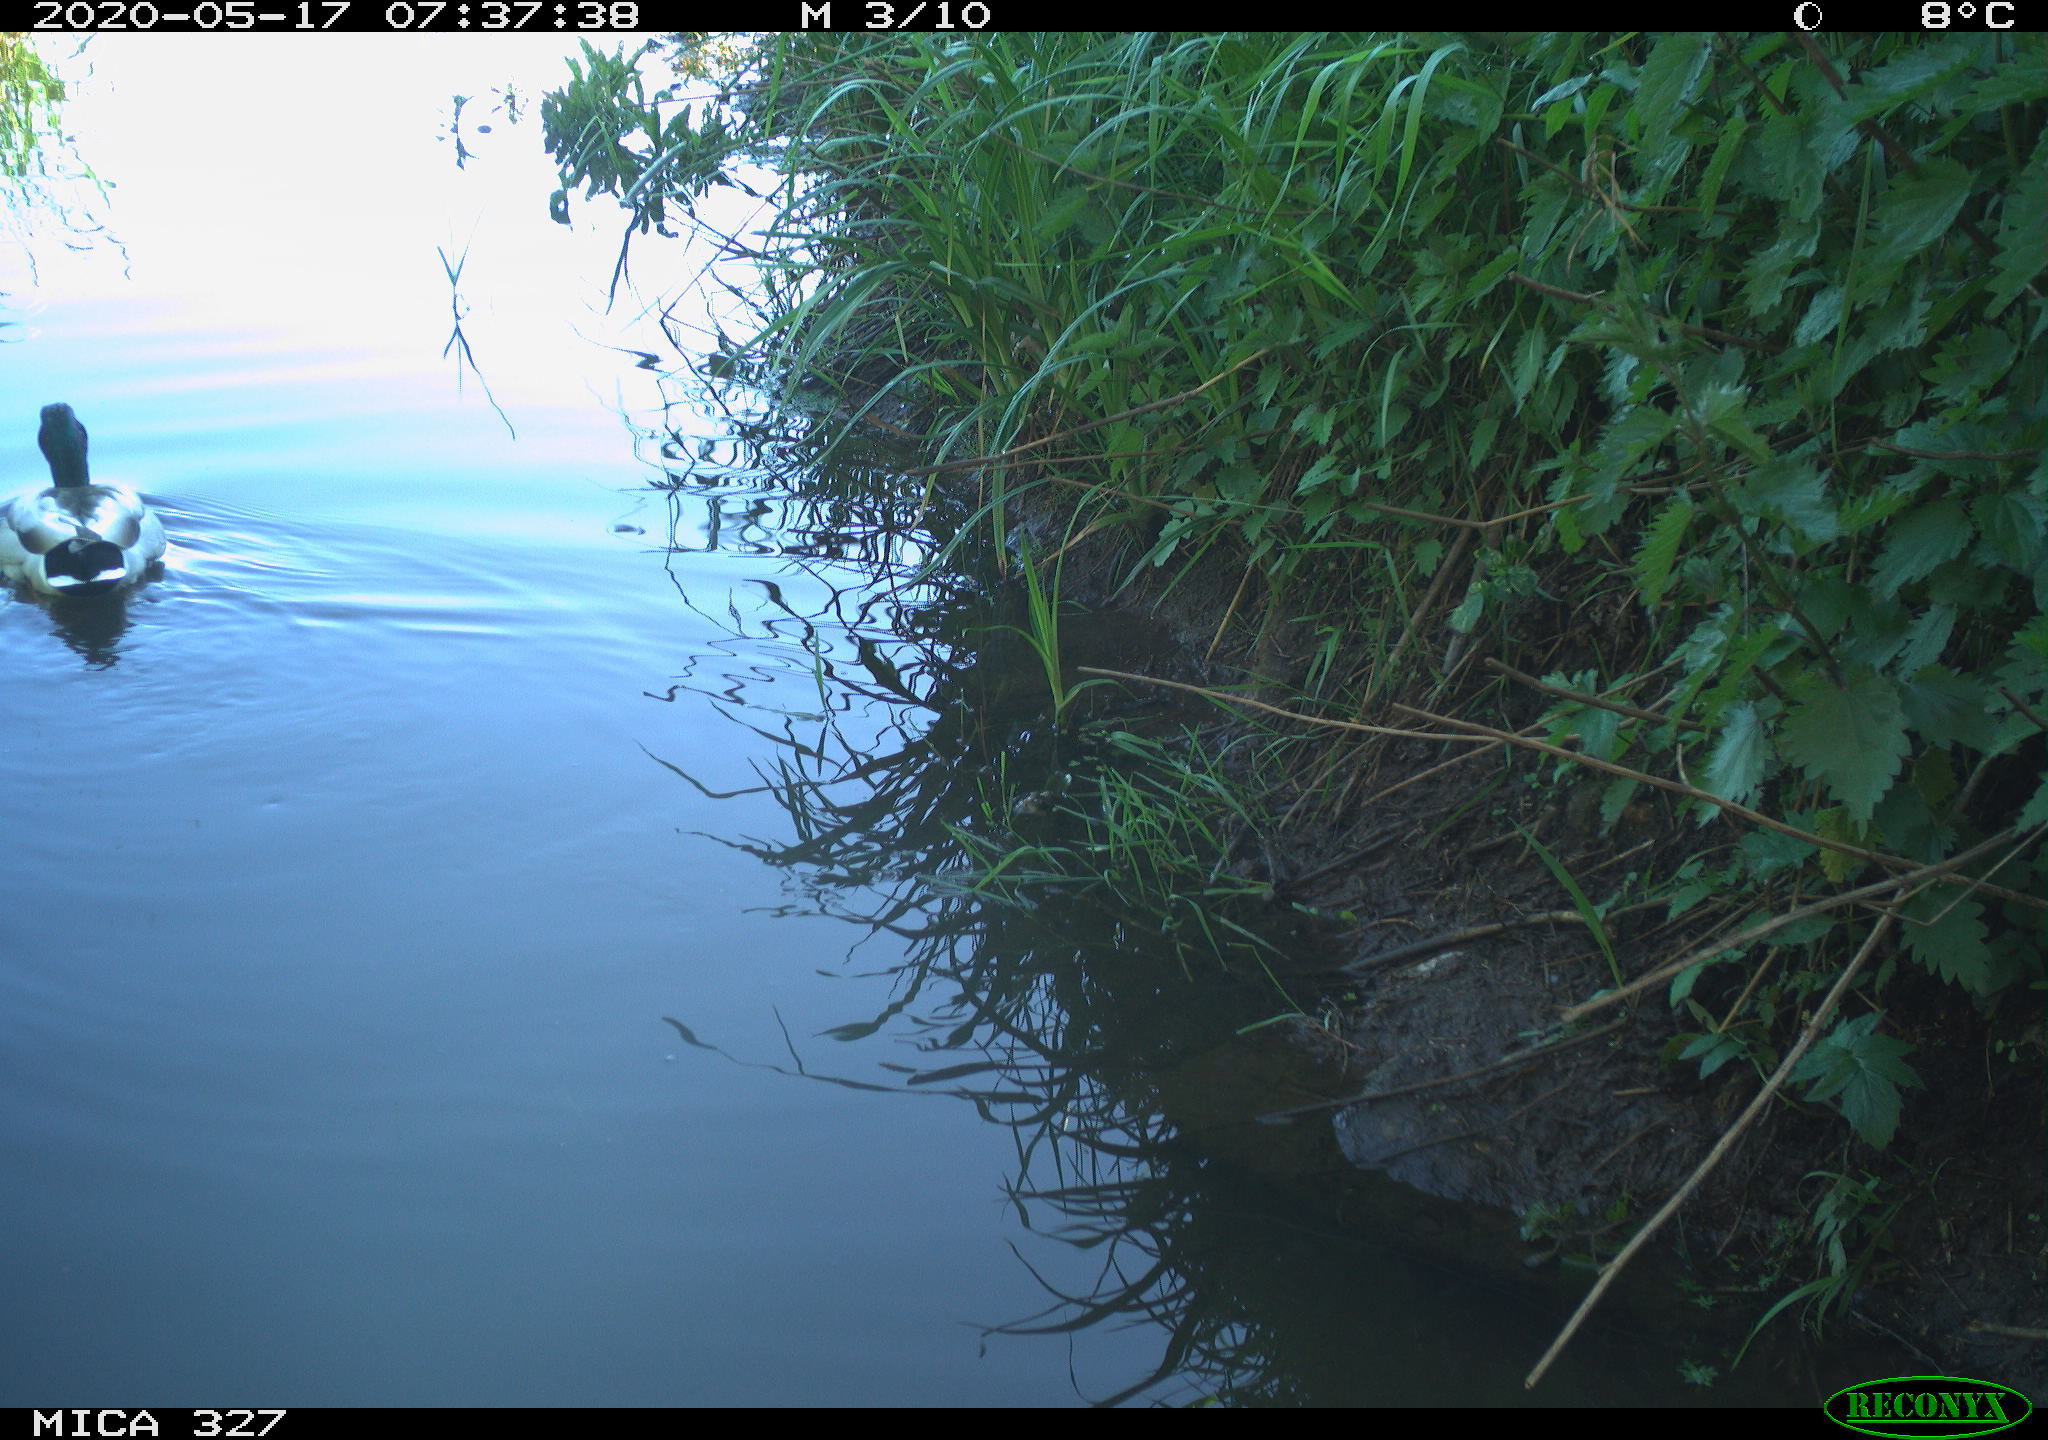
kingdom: Animalia
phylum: Chordata
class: Aves
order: Anseriformes
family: Anatidae
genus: Anas
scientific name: Anas platyrhynchos
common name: Mallard
